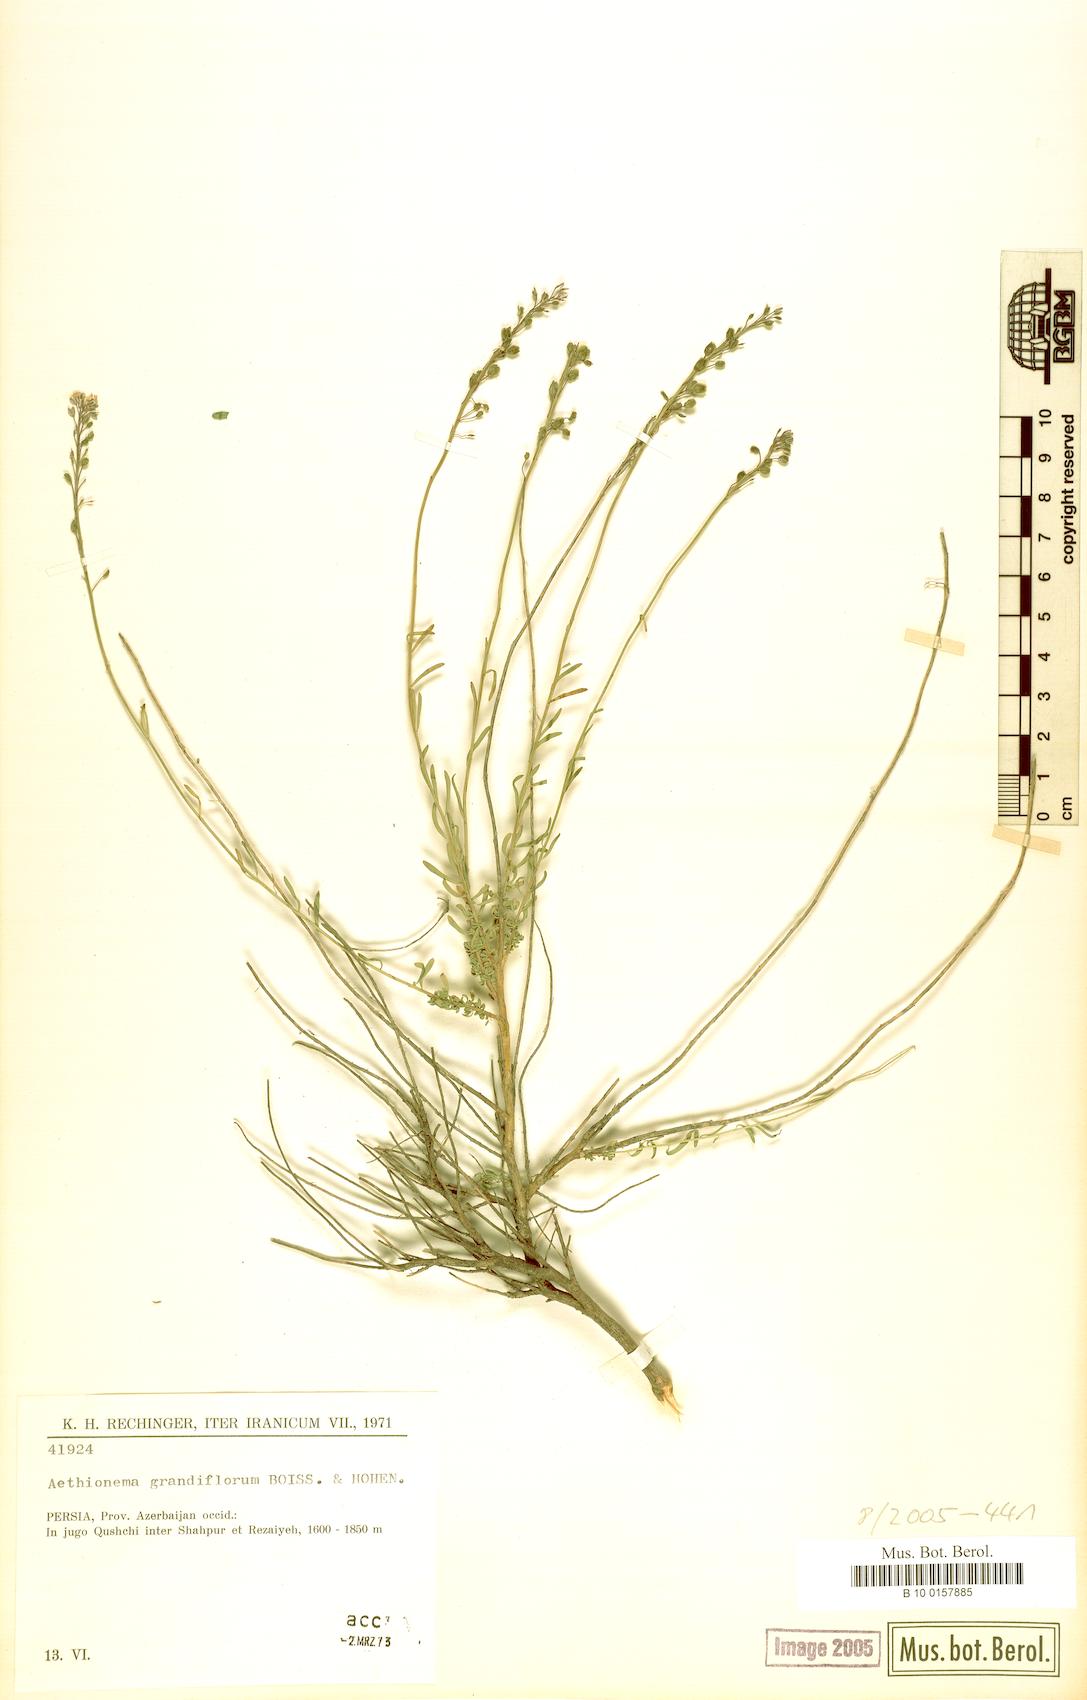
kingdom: Plantae
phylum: Tracheophyta
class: Magnoliopsida
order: Brassicales
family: Brassicaceae
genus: Aethionema
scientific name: Aethionema grandiflorum
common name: Persian stonecress
